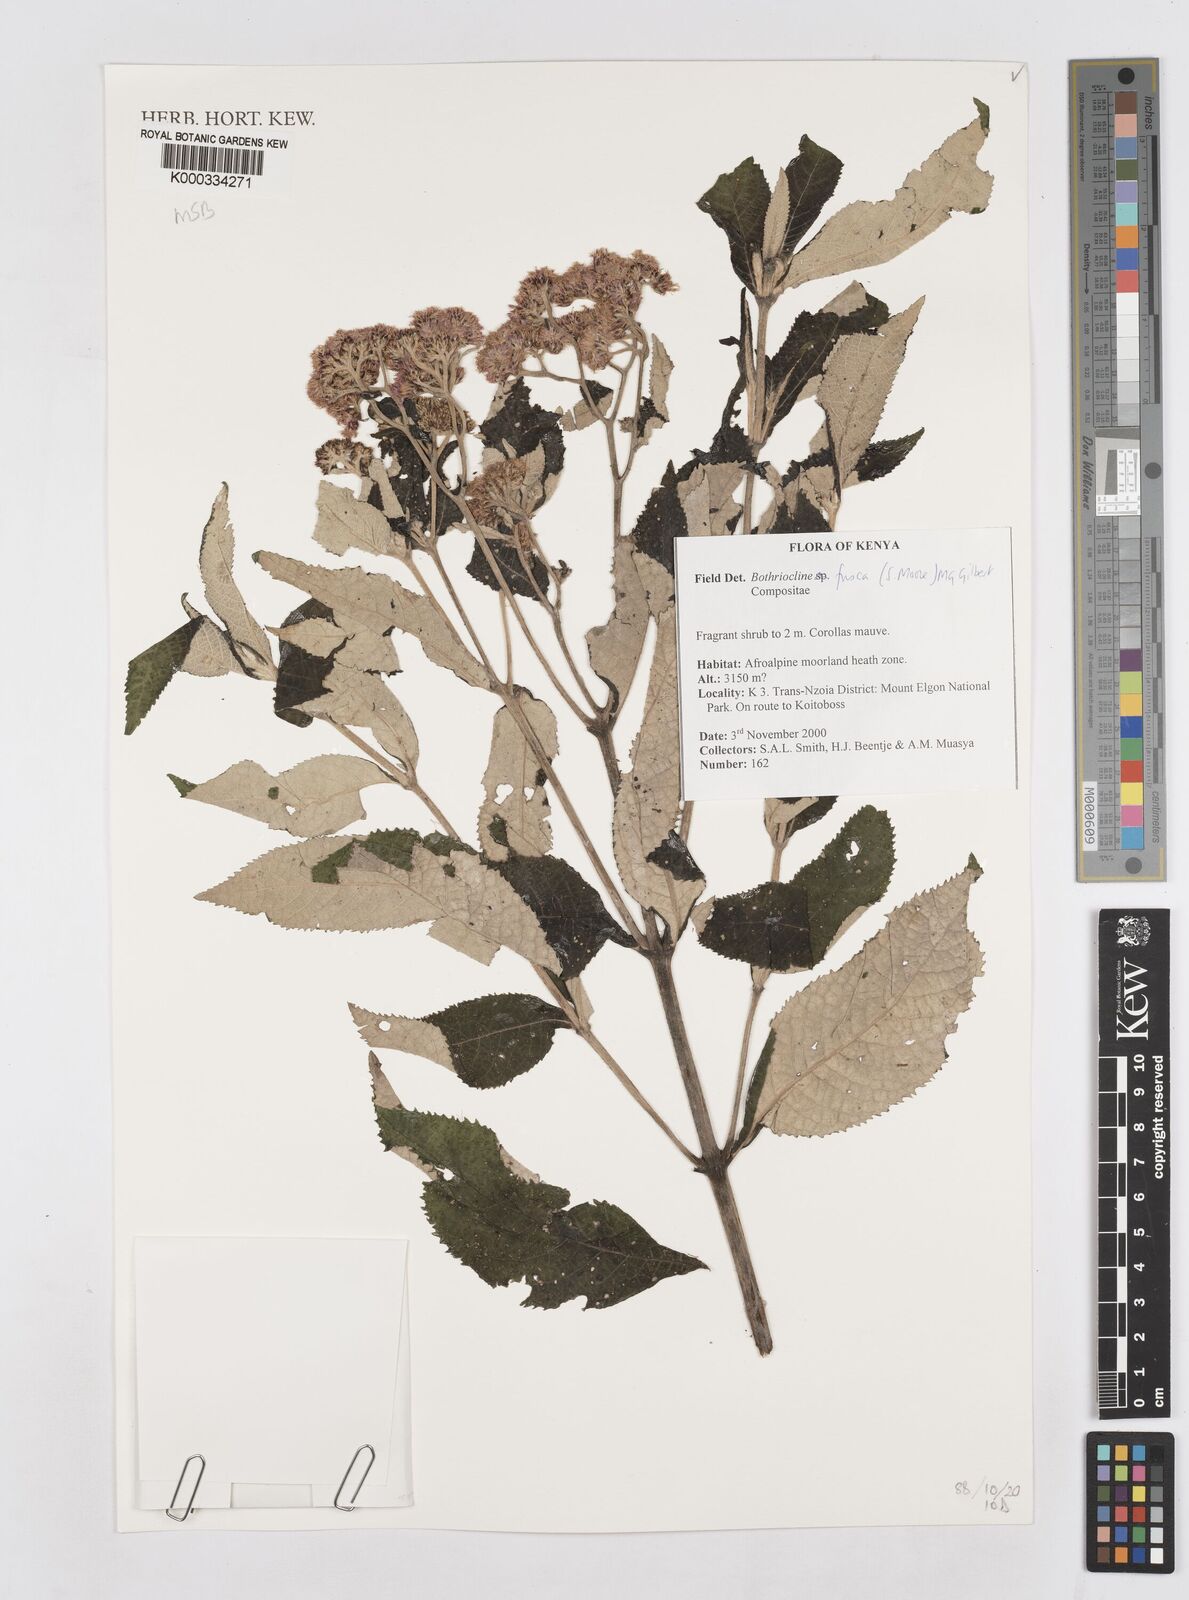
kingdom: Plantae
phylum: Tracheophyta
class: Magnoliopsida
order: Asterales
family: Asteraceae
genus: Bothriocline
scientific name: Bothriocline fusca
